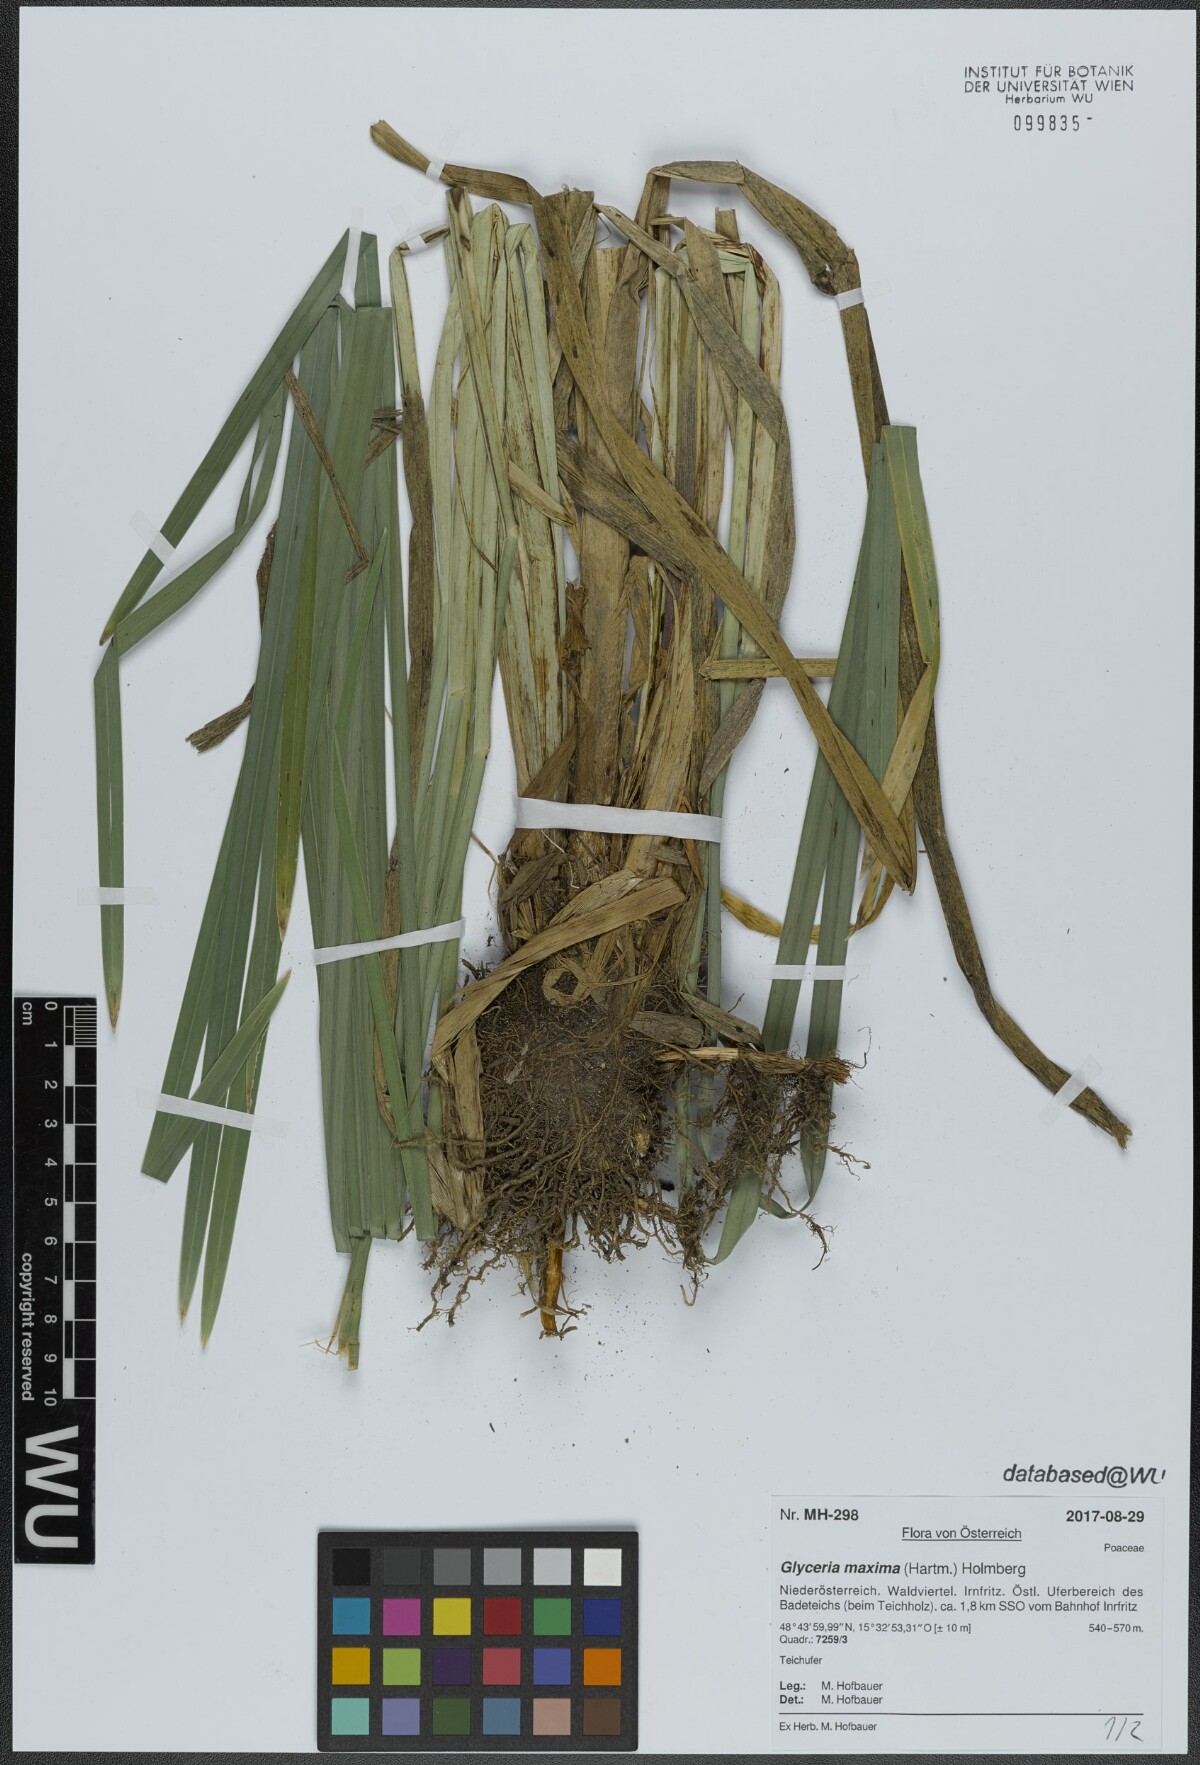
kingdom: Plantae
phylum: Tracheophyta
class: Liliopsida
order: Poales
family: Poaceae
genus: Glyceria
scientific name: Glyceria maxima
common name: Reed mannagrass
